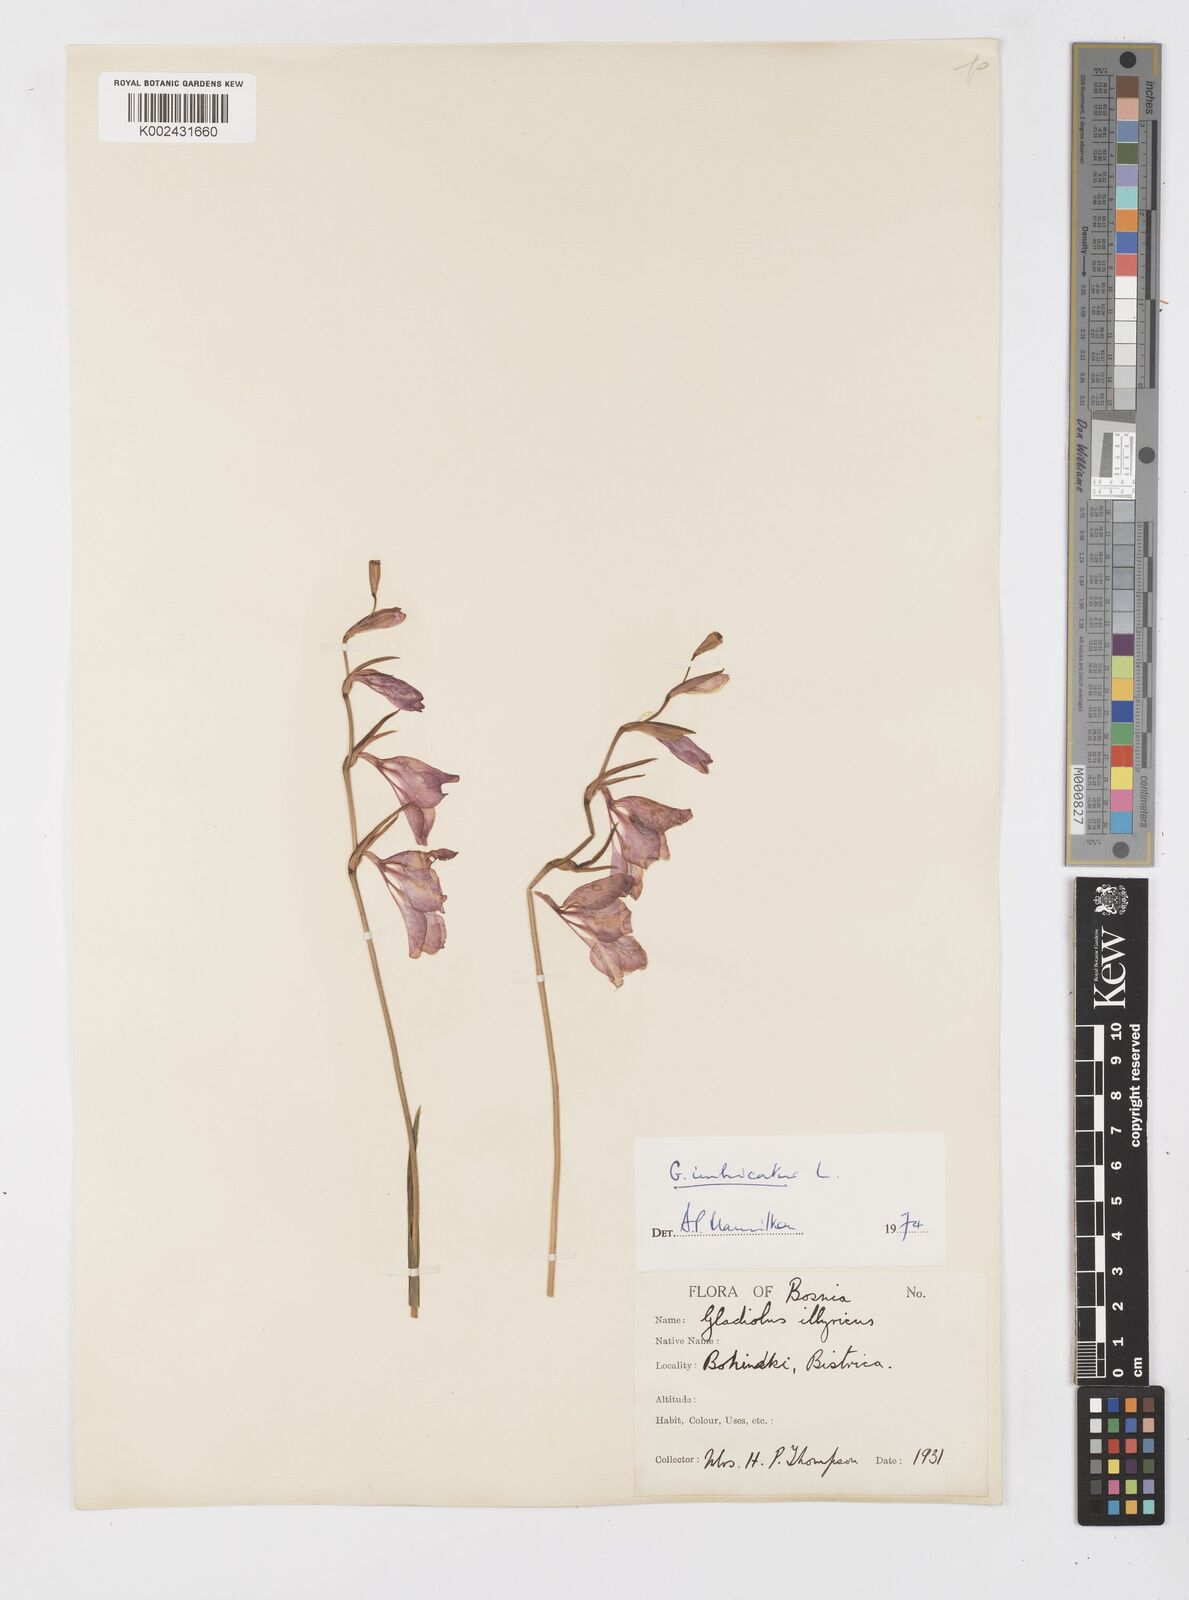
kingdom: Plantae
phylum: Tracheophyta
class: Liliopsida
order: Asparagales
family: Iridaceae
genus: Gladiolus
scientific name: Gladiolus imbricatus
